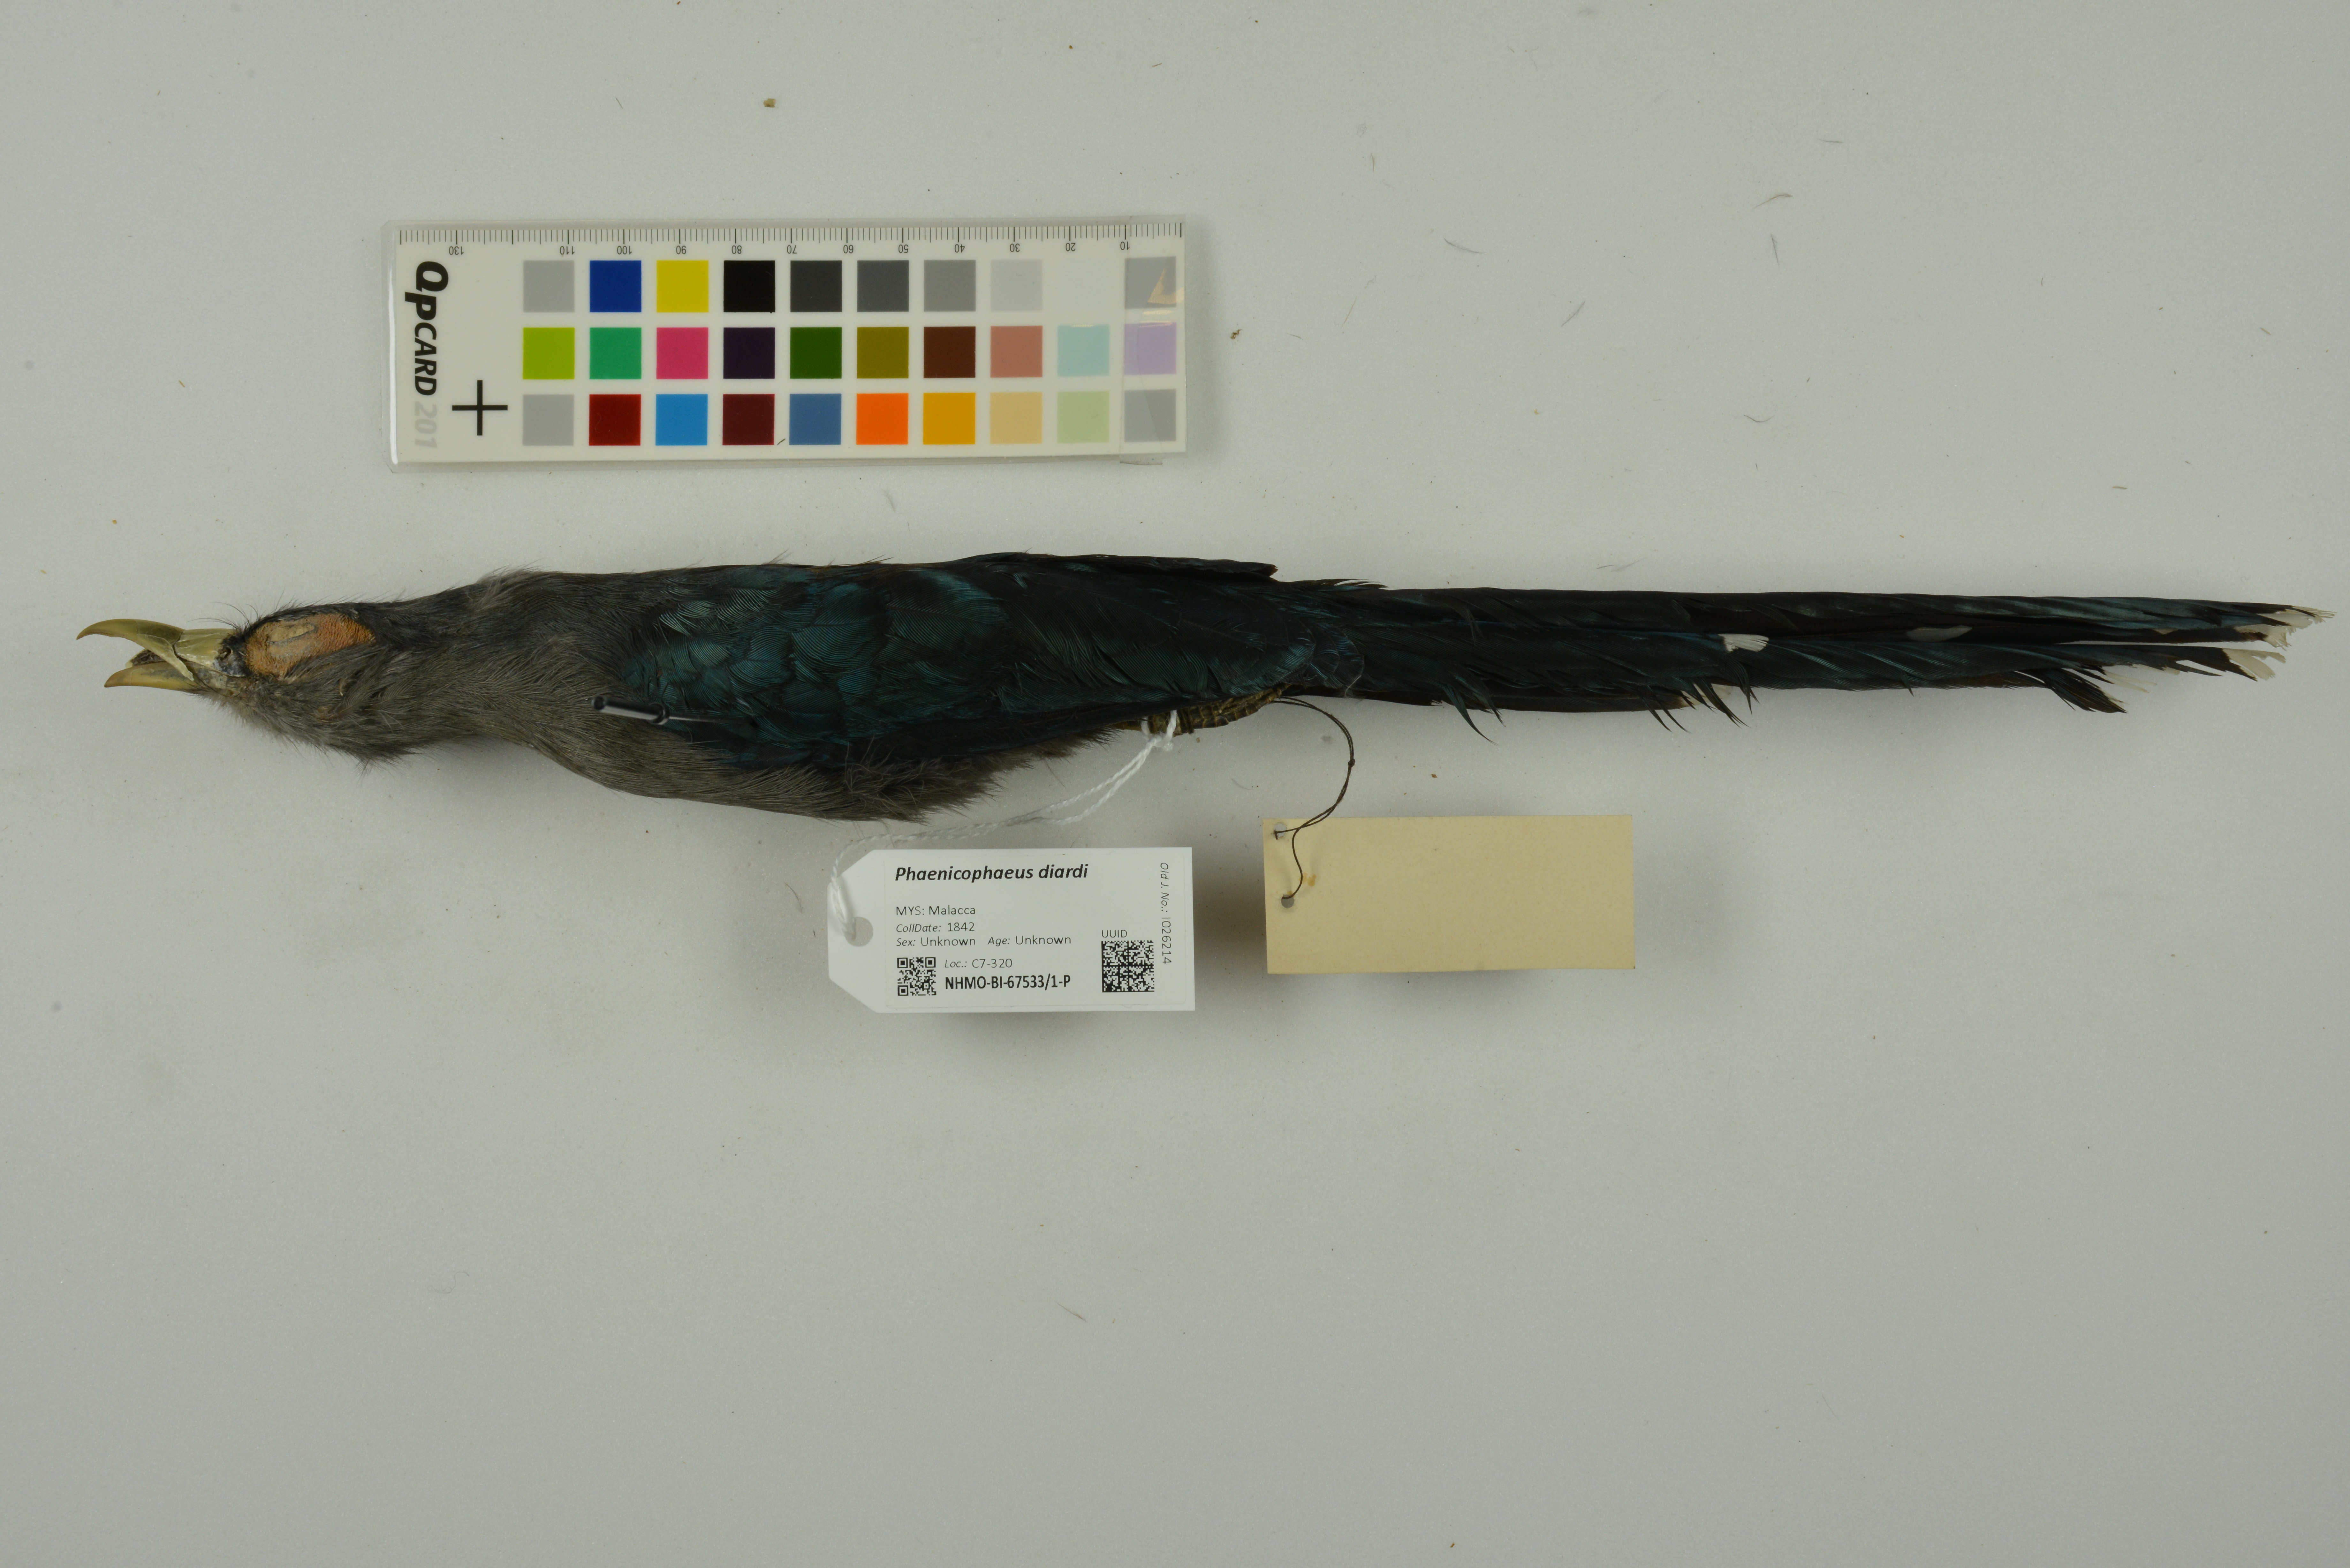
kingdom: Animalia
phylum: Chordata
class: Aves
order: Cuculiformes
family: Cuculidae
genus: Rhopodytes
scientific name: Rhopodytes diardi
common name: Lesser green-billed malcoha
